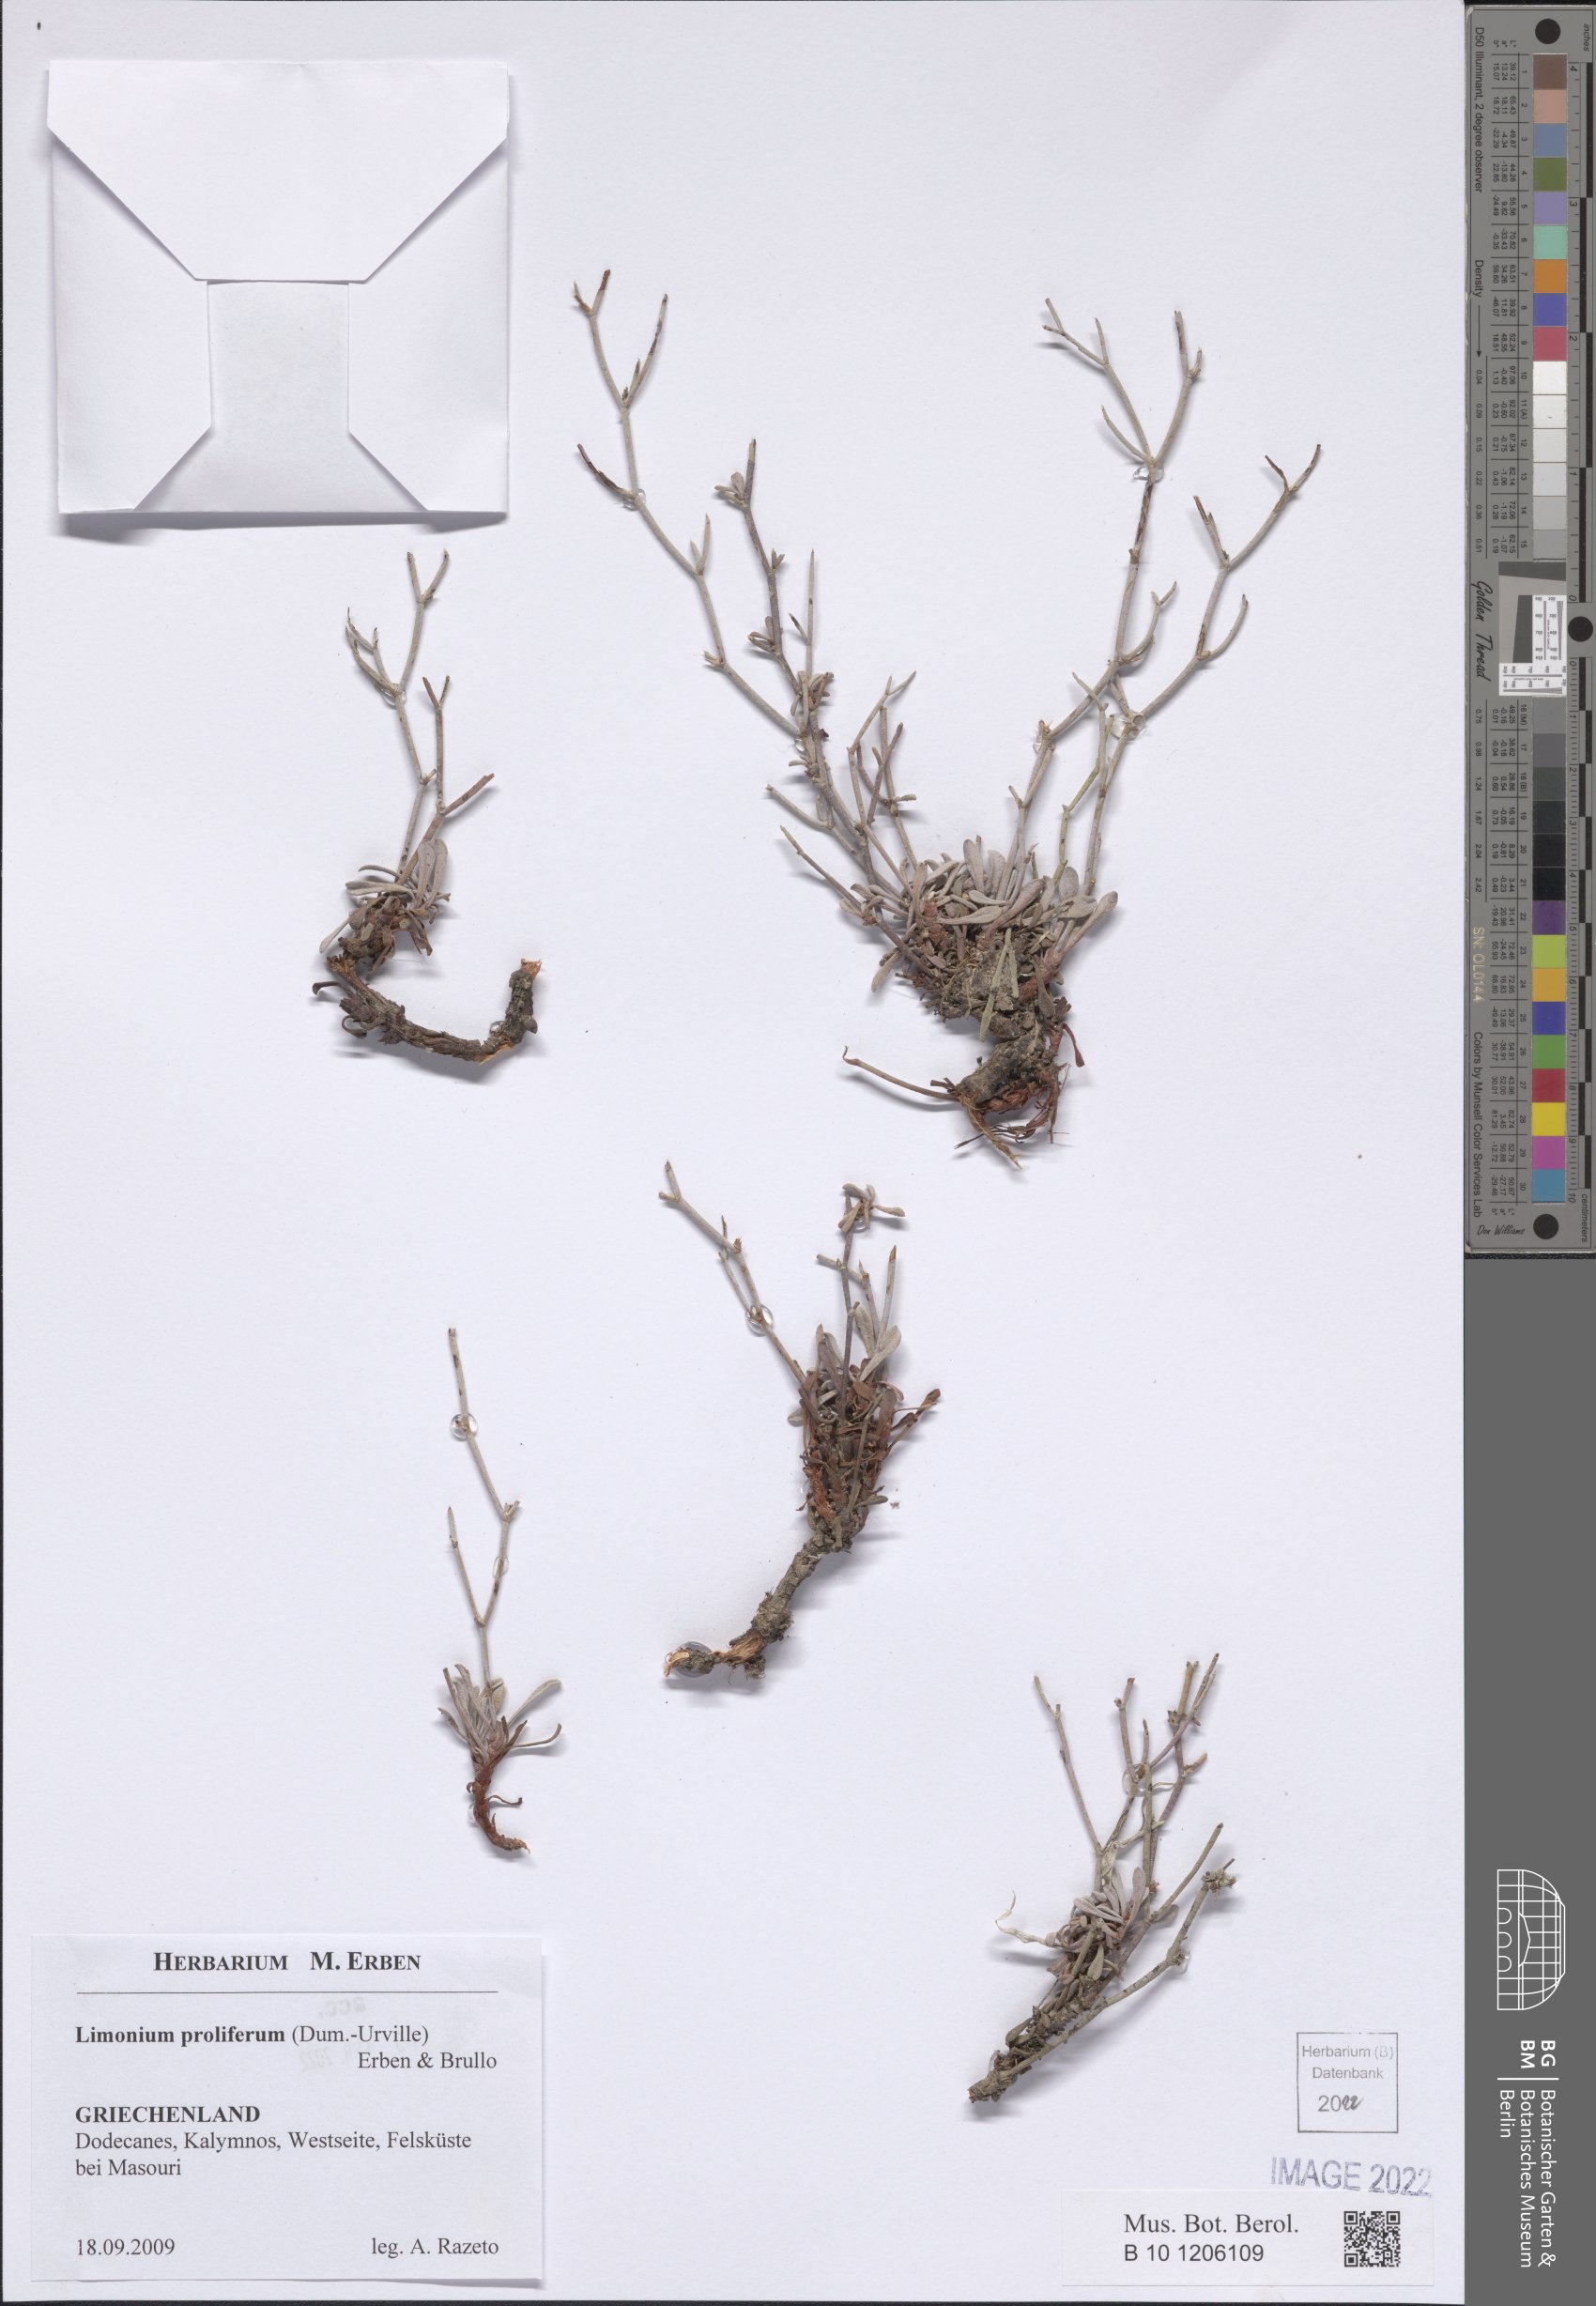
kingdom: Plantae
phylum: Tracheophyta
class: Magnoliopsida
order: Caryophyllales
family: Plumbaginaceae
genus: Limonium
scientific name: Limonium proliferum
